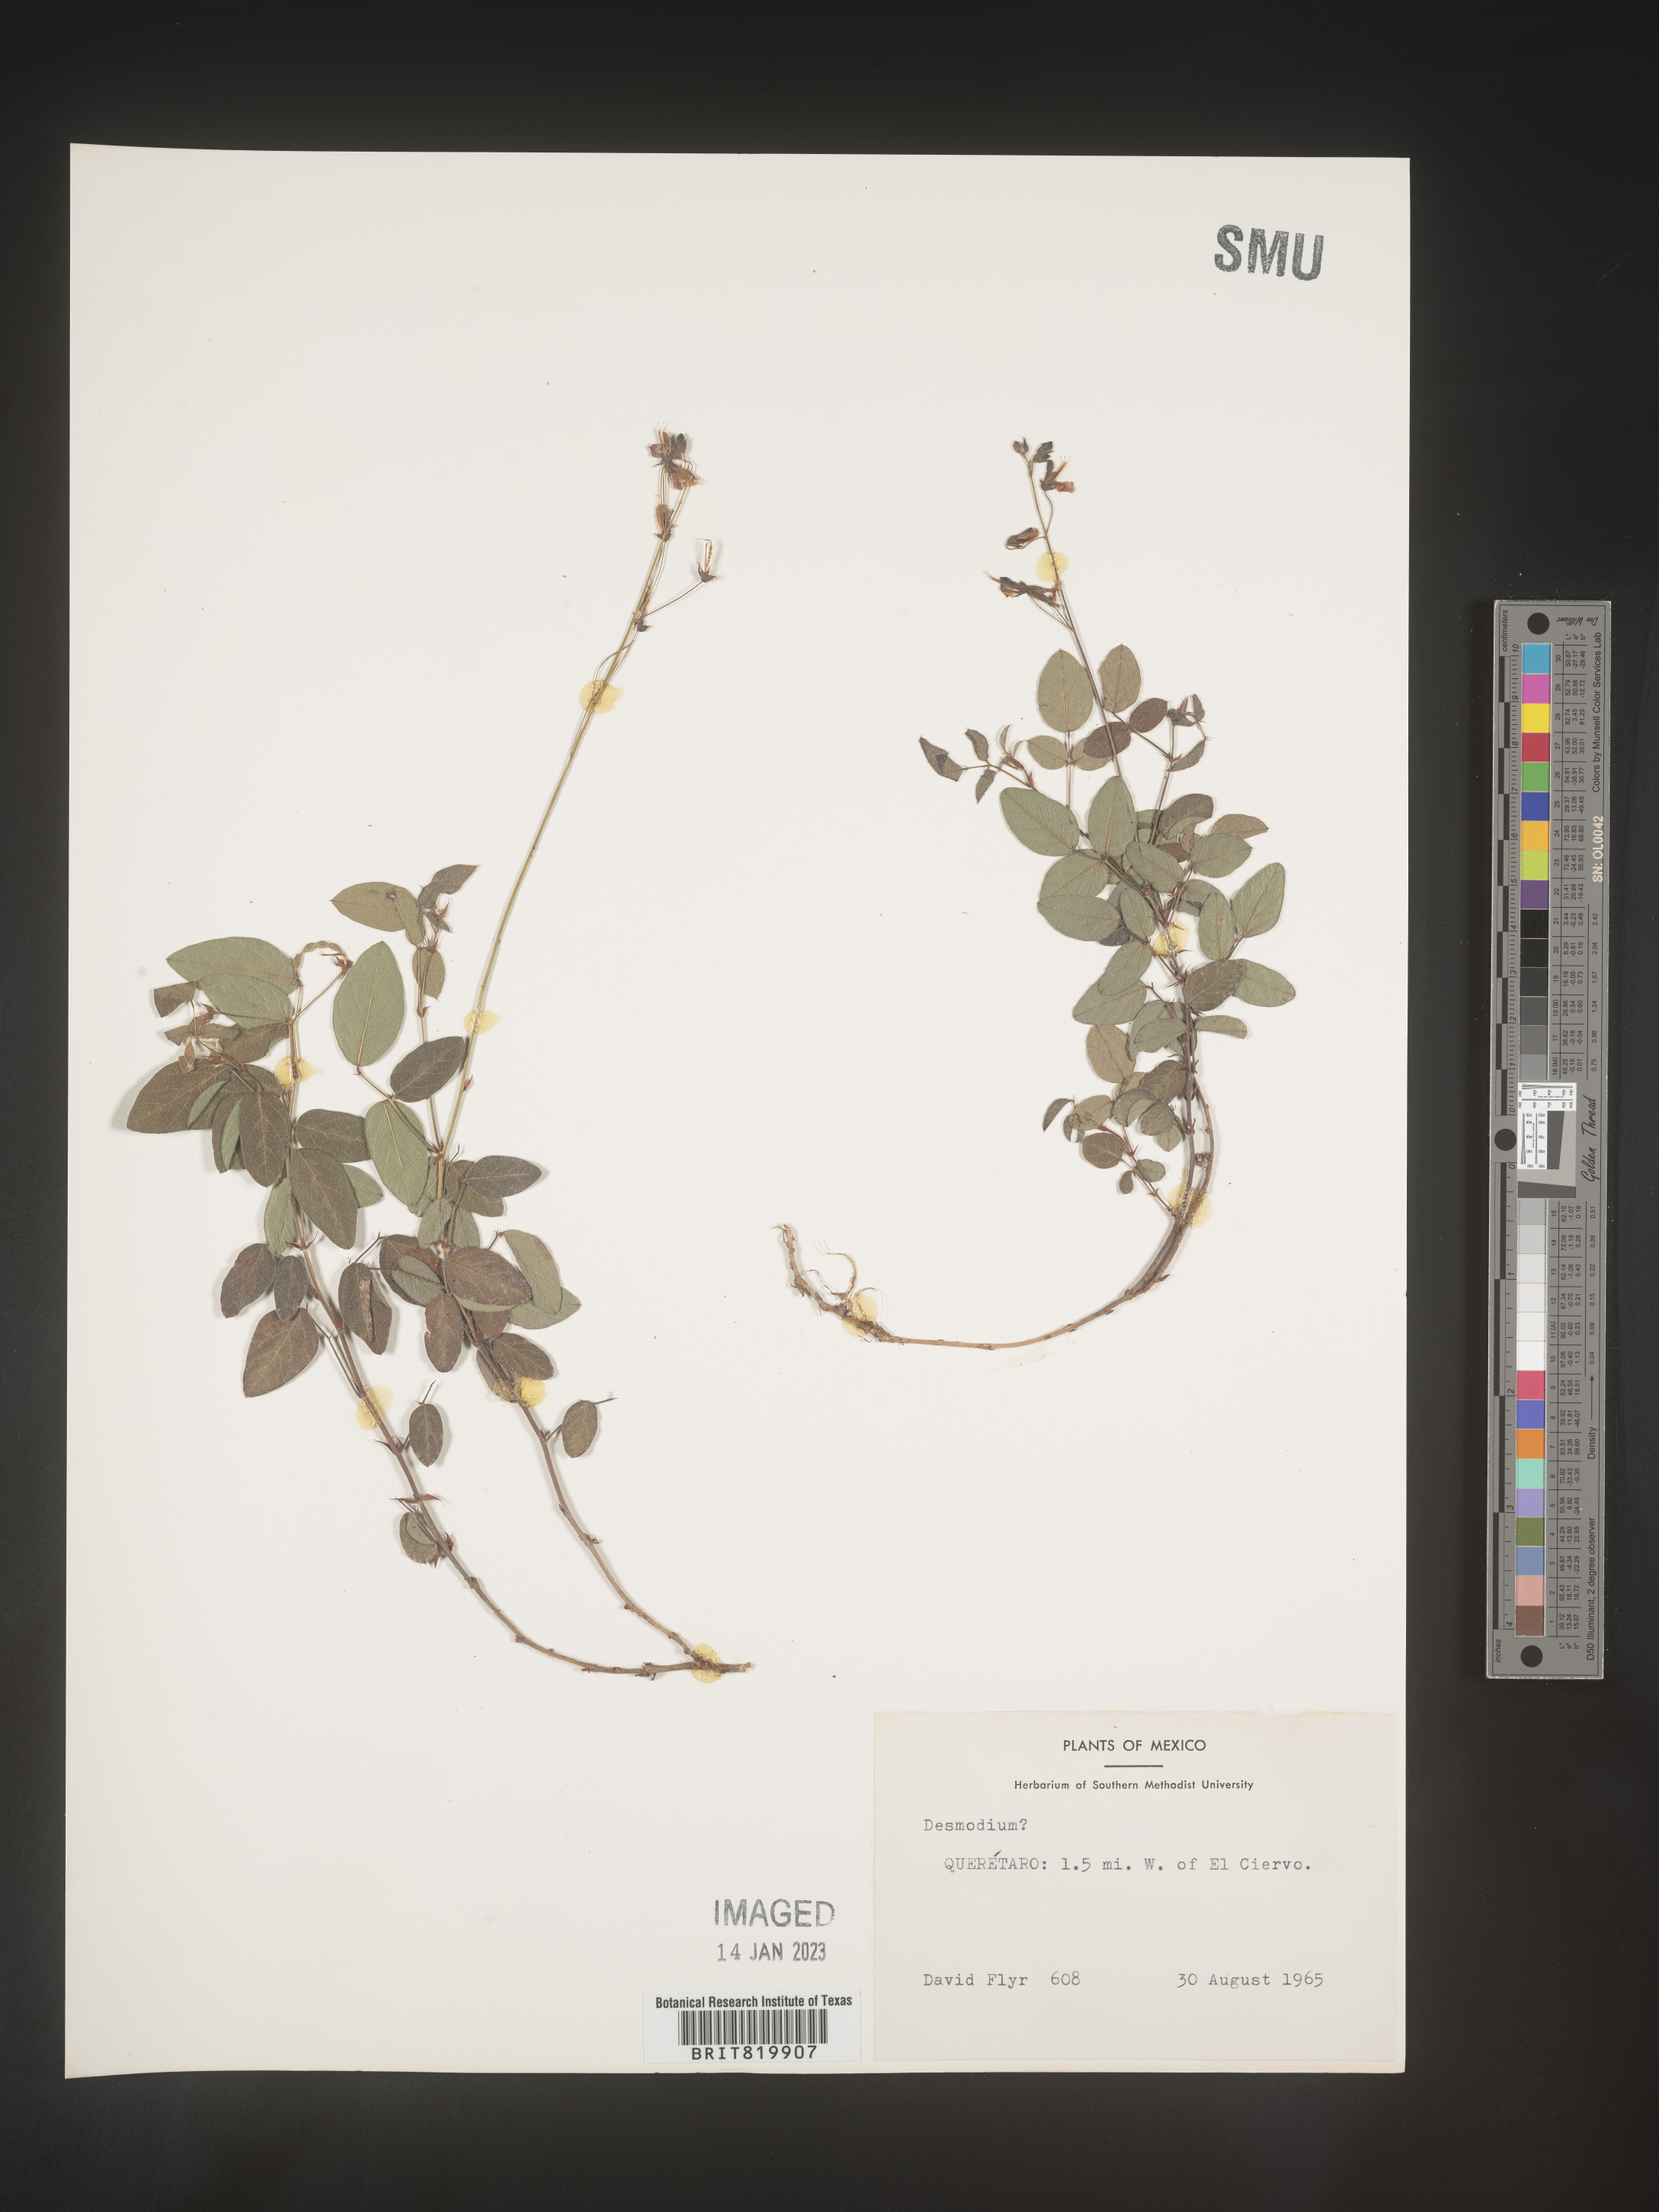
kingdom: Plantae
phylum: Tracheophyta
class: Magnoliopsida
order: Fabales
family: Fabaceae
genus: Desmodium
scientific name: Desmodium
